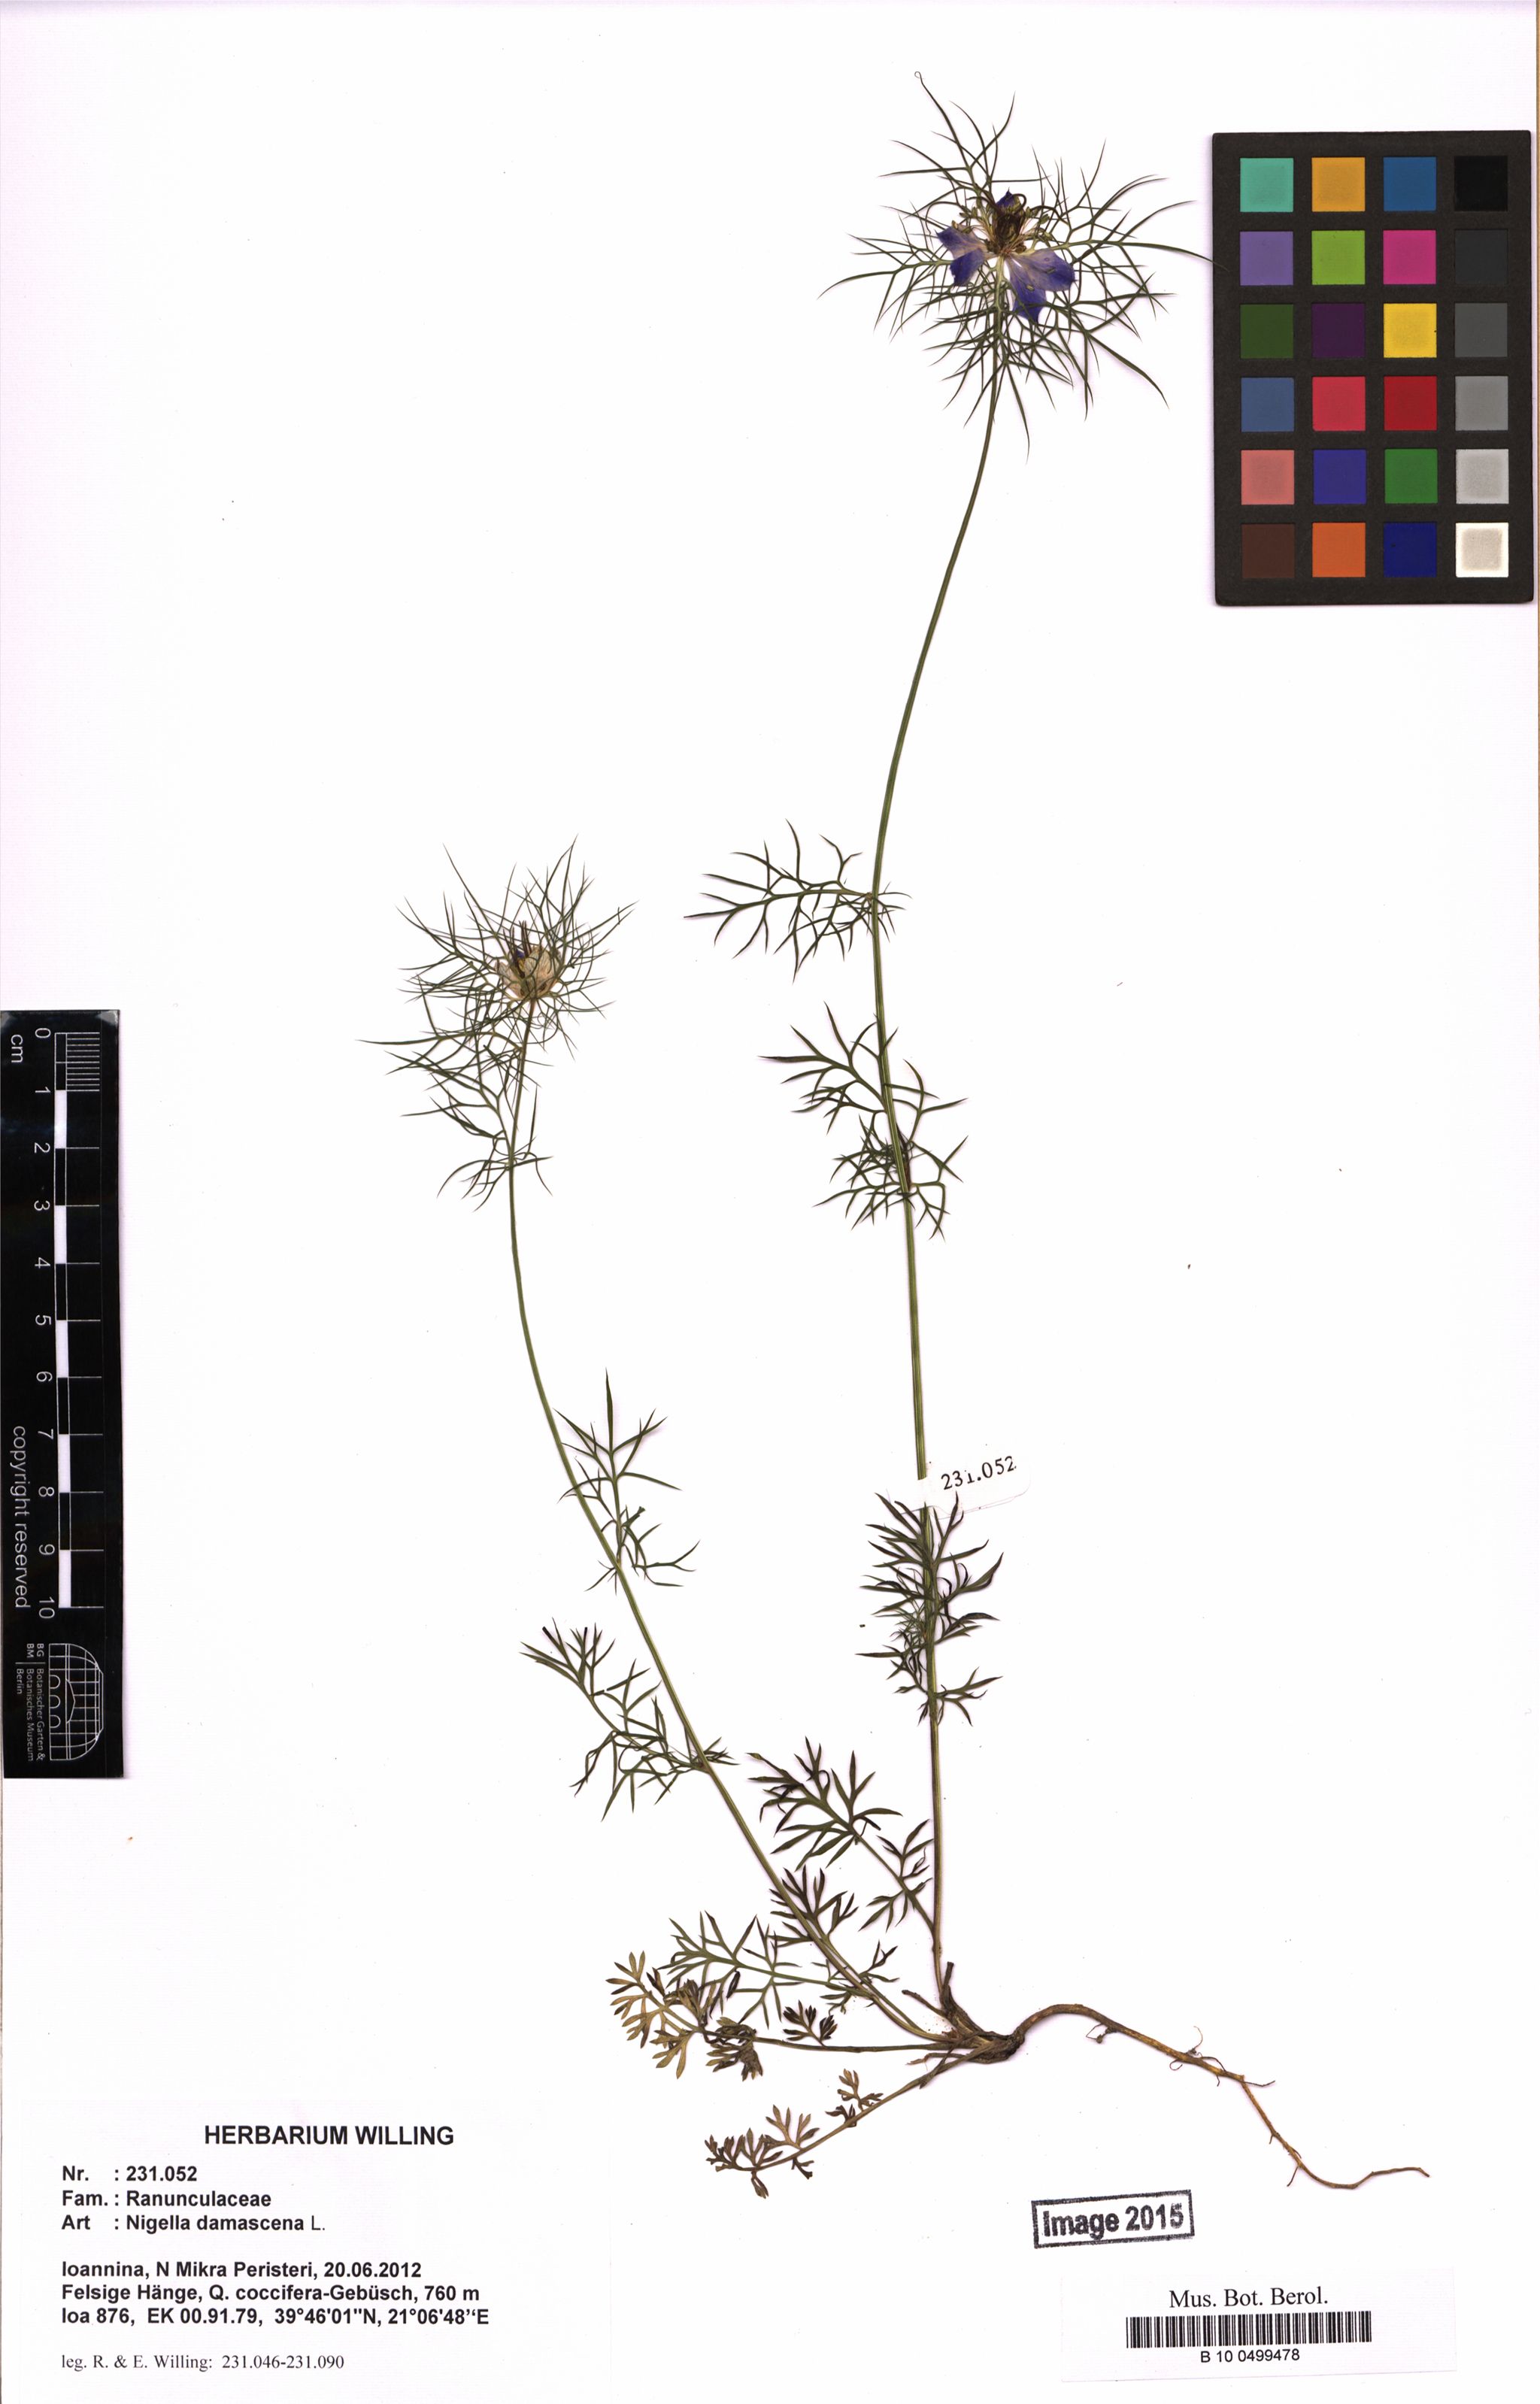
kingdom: Plantae
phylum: Tracheophyta
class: Magnoliopsida
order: Ranunculales
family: Ranunculaceae
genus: Nigella
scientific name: Nigella damascena
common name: Love-in-a-mist
